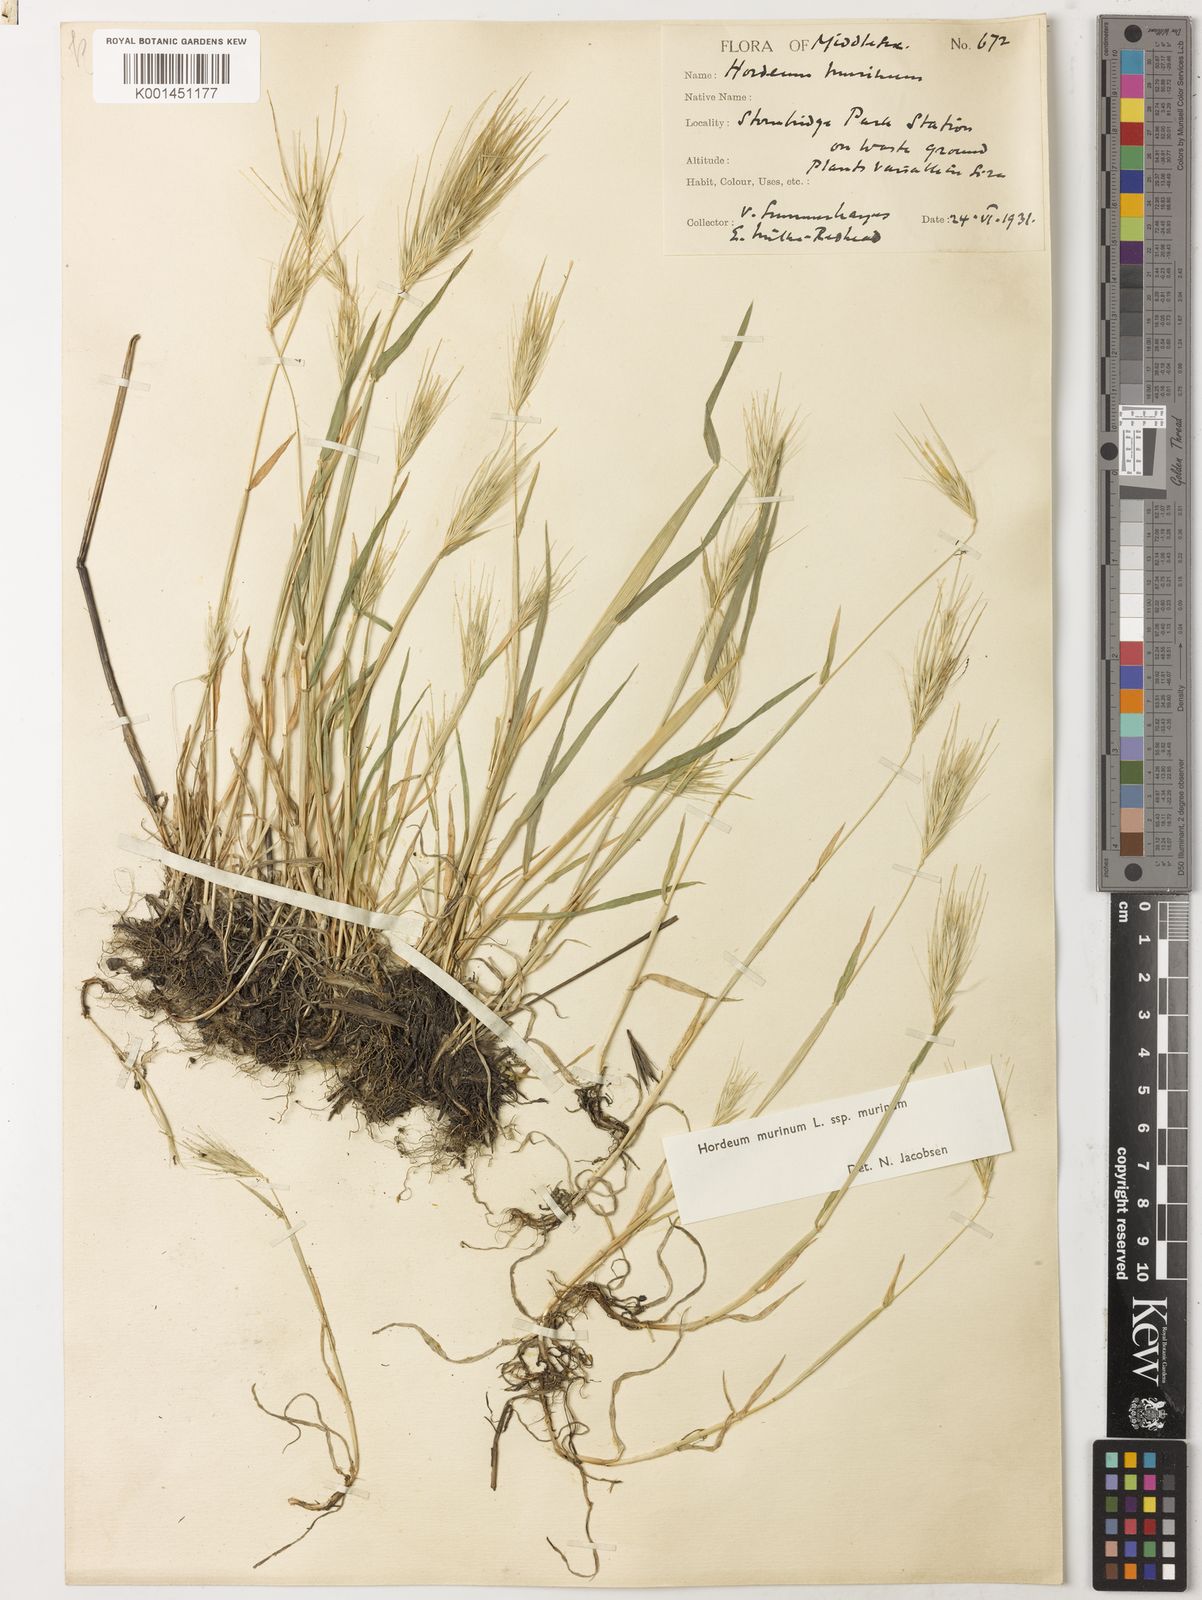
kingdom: Plantae
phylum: Tracheophyta
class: Liliopsida
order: Poales
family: Poaceae
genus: Hordeum
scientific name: Hordeum murinum
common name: Wall barley
